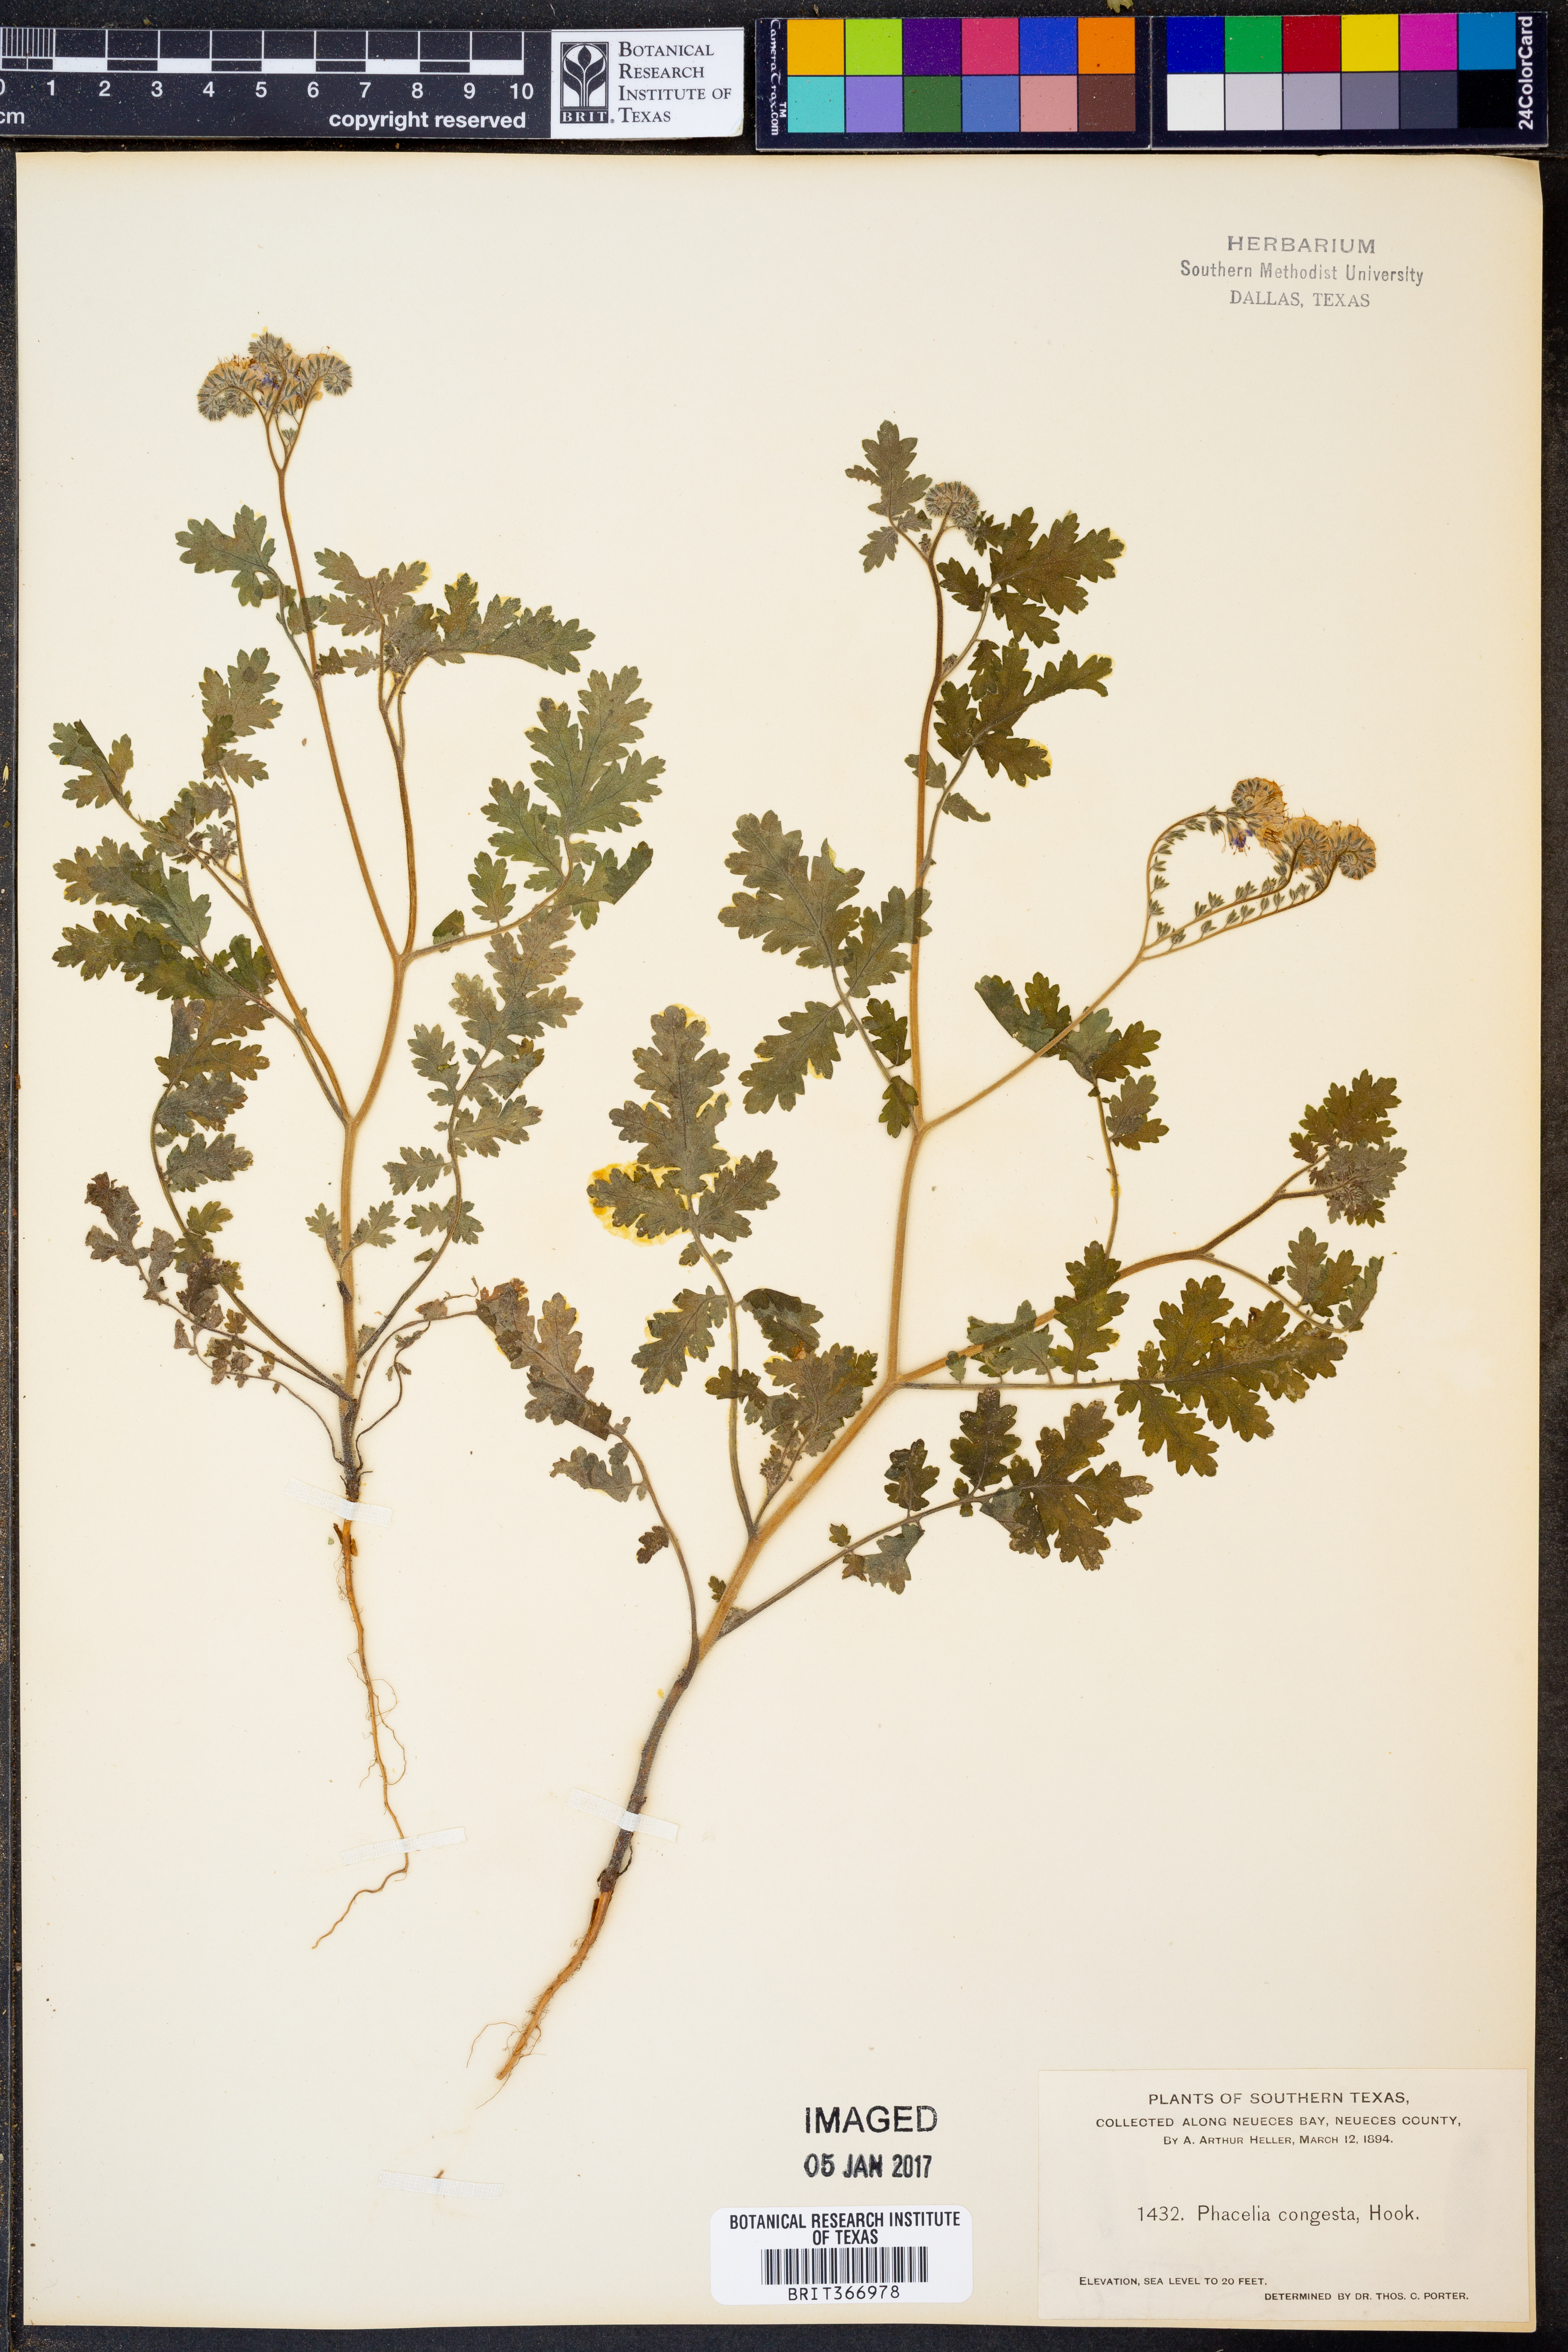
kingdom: Plantae
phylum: Tracheophyta
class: Magnoliopsida
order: Boraginales
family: Hydrophyllaceae
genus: Phacelia
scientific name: Phacelia congesta
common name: Blue curls
